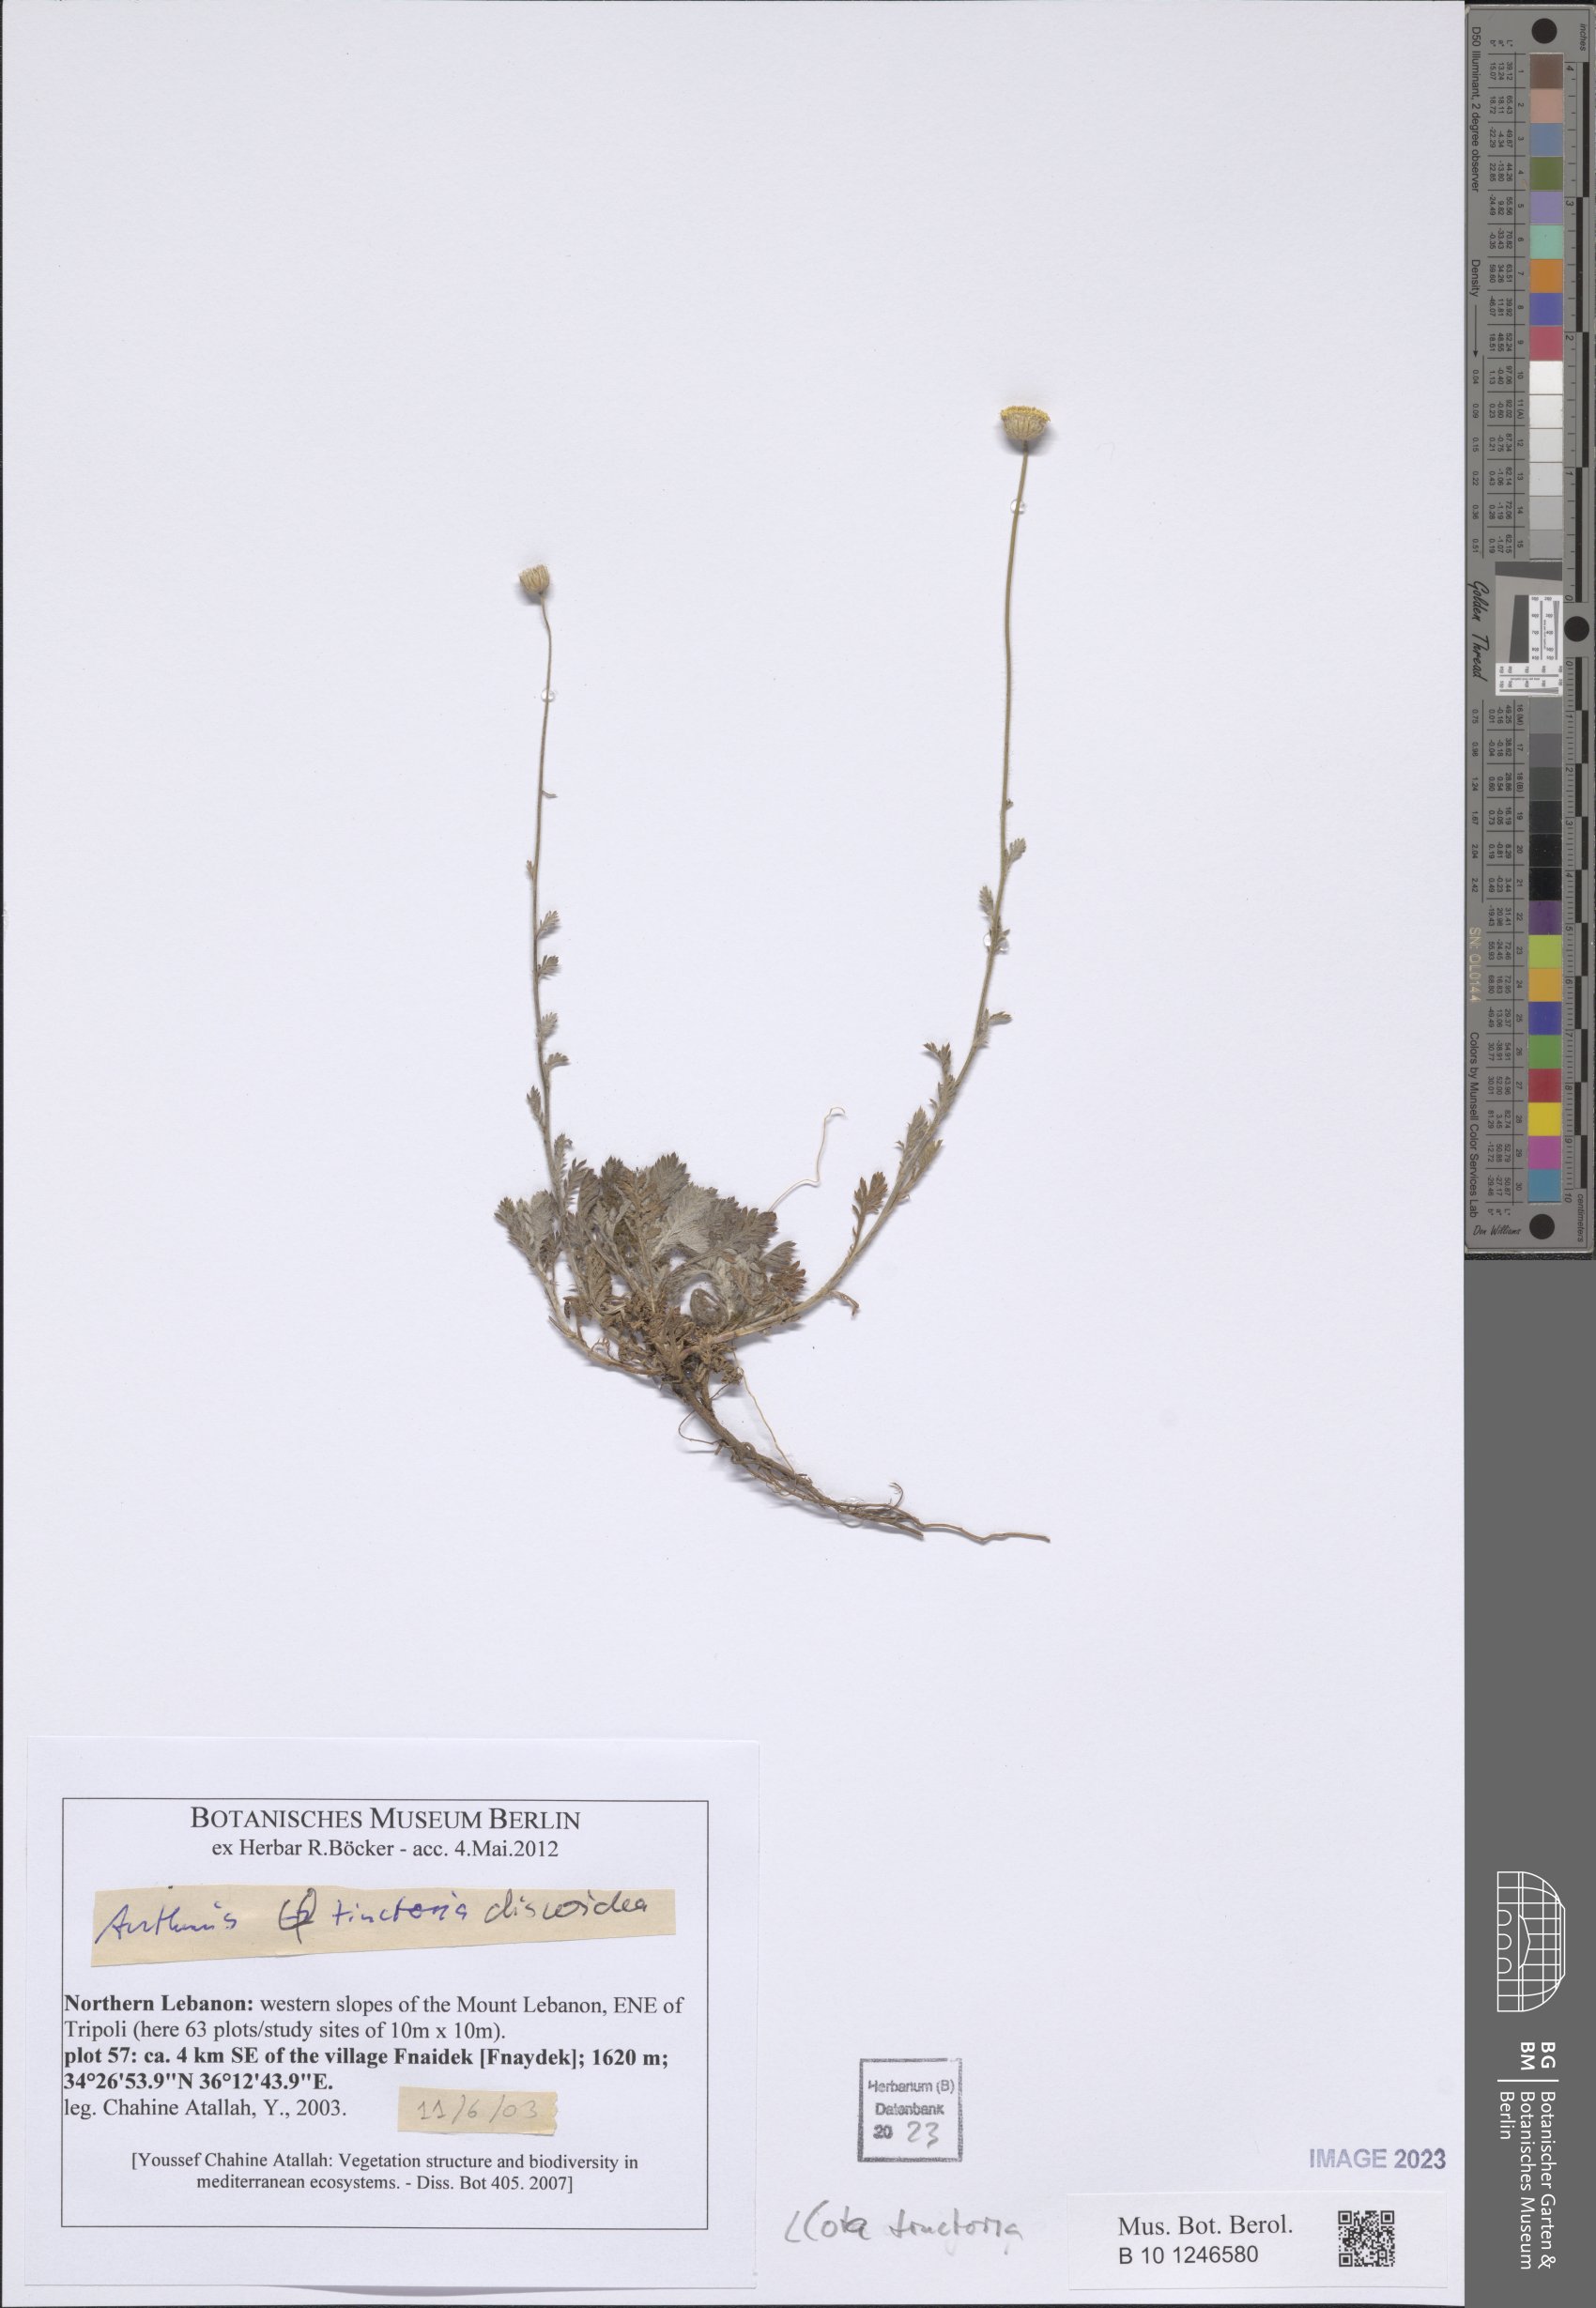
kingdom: Plantae
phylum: Tracheophyta
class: Magnoliopsida
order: Asterales
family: Asteraceae
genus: Cota
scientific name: Cota tinctoria
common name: Golden chamomile
